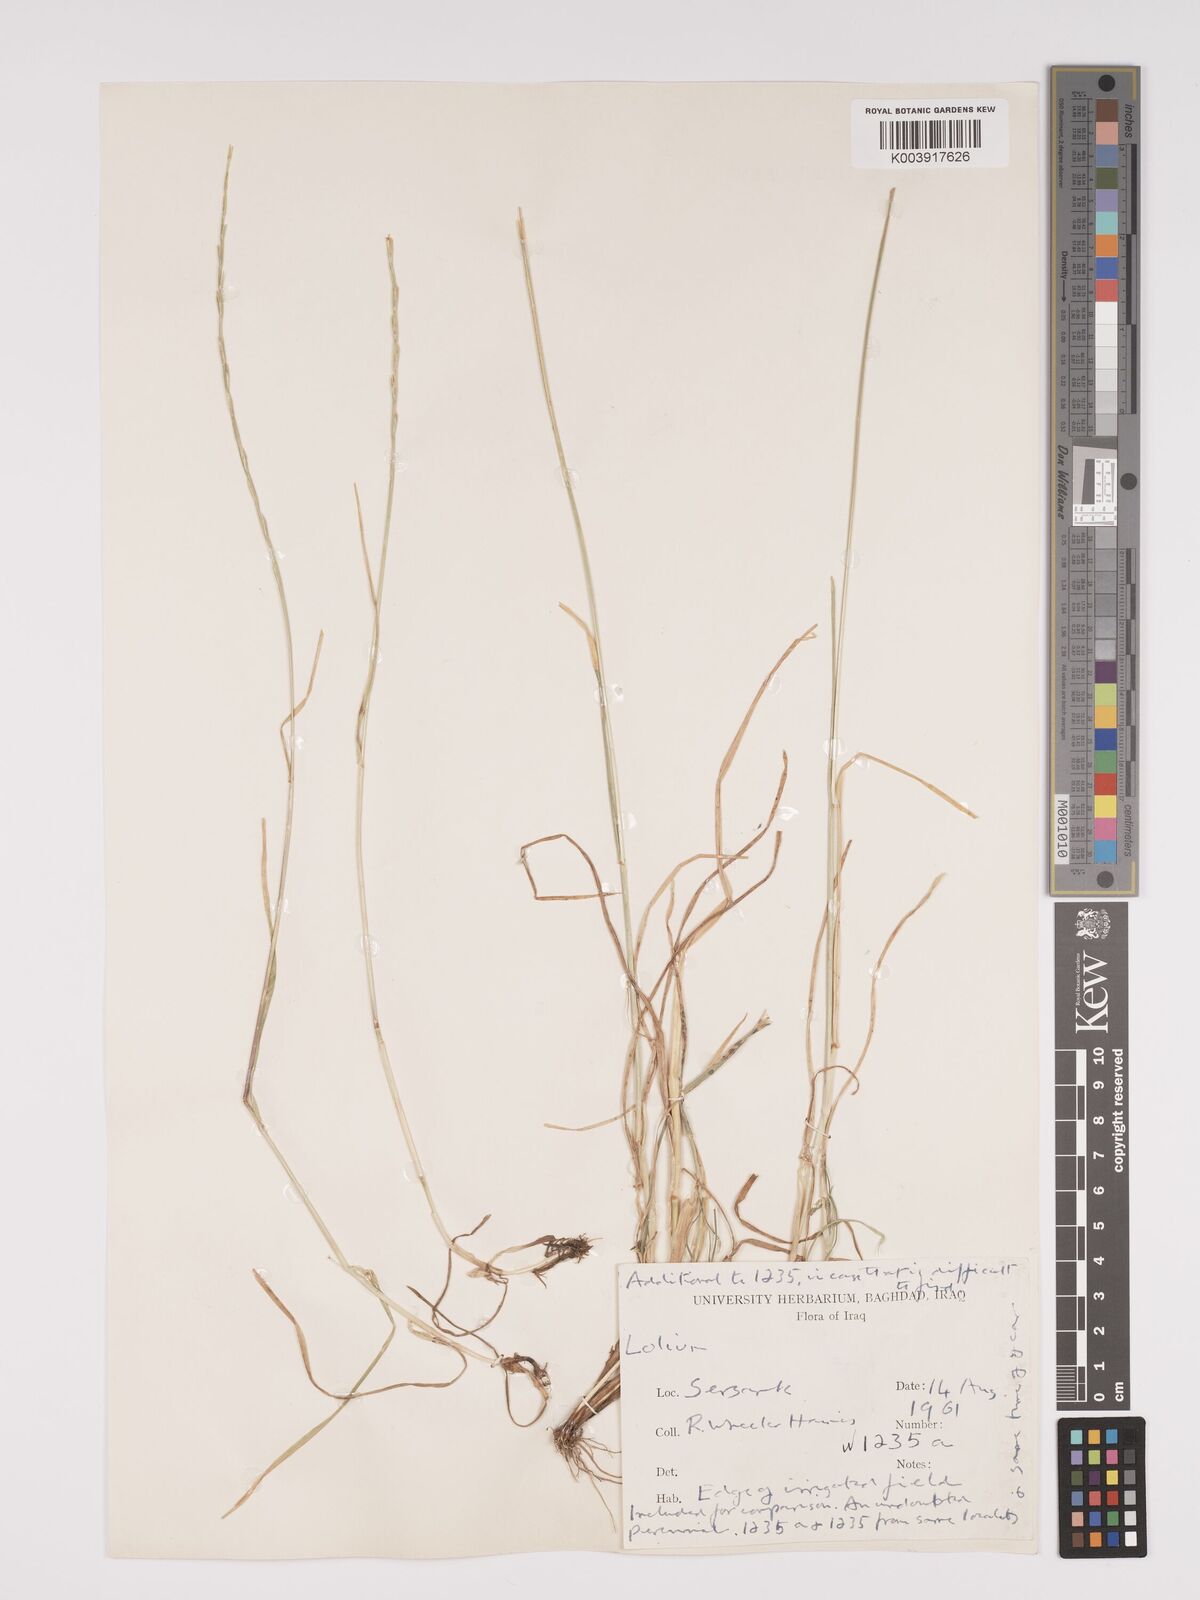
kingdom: Plantae
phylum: Tracheophyta
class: Liliopsida
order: Poales
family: Poaceae
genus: Lolium
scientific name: Lolium
